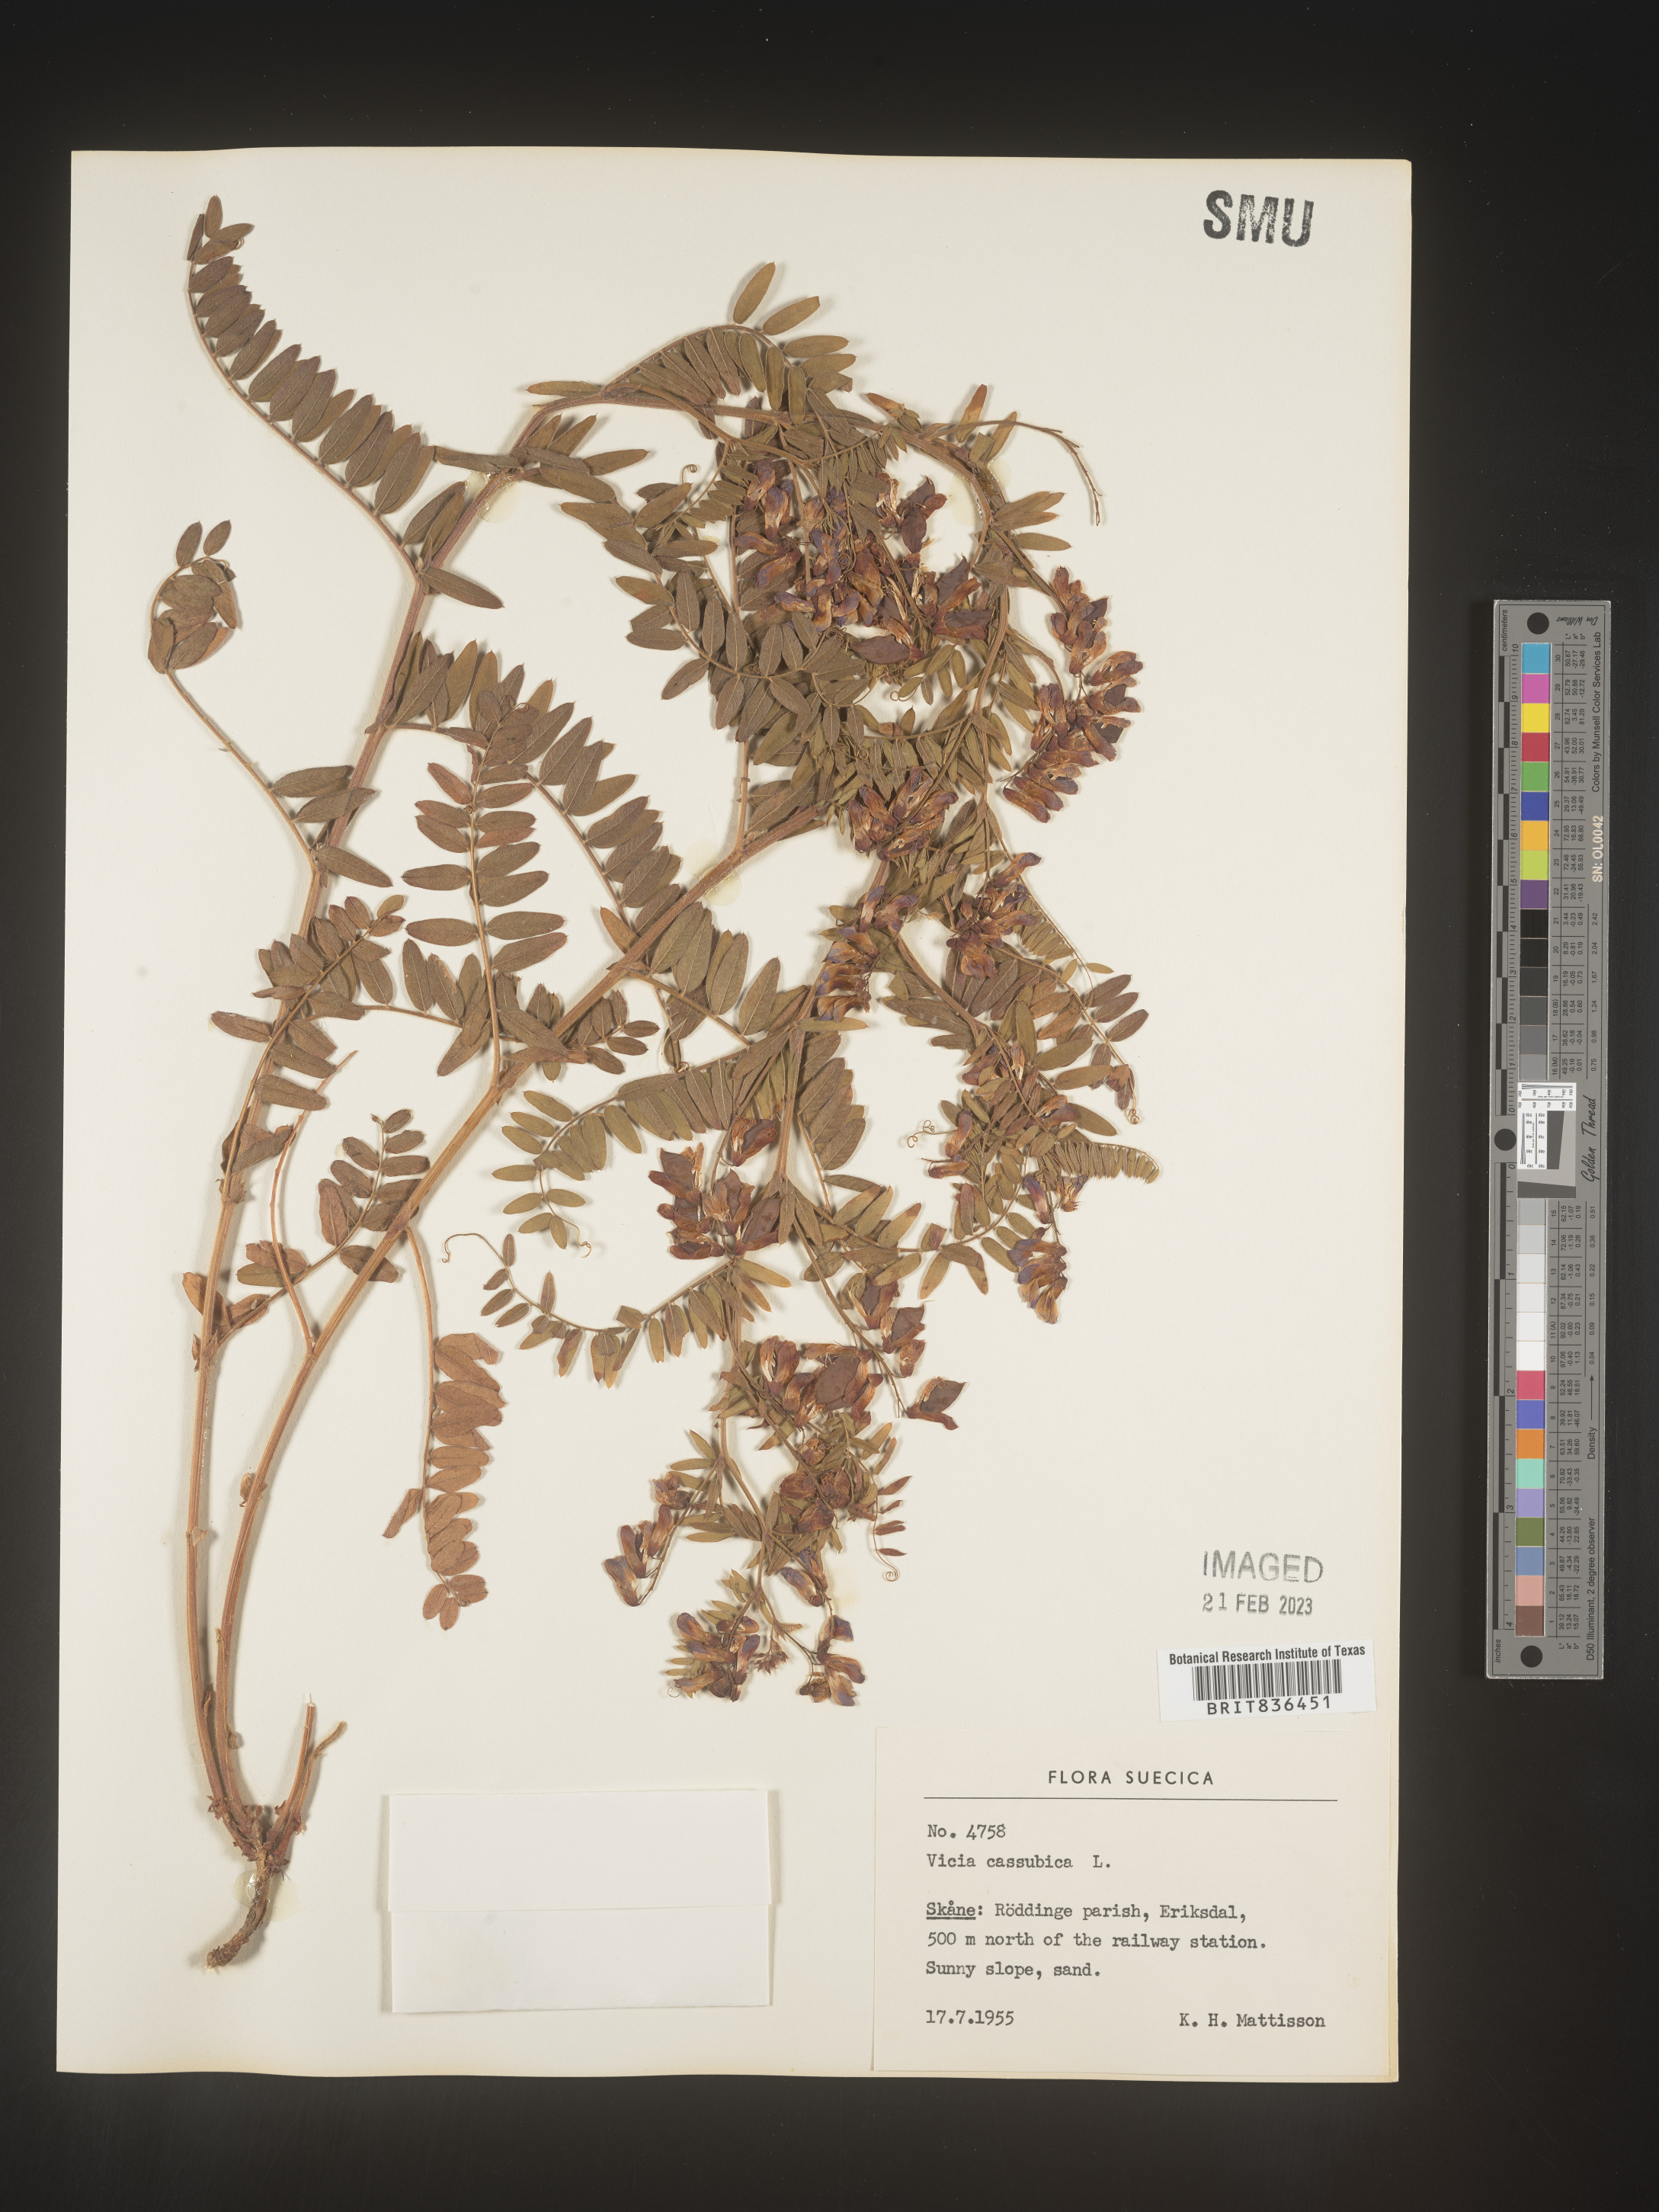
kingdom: Plantae
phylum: Tracheophyta
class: Magnoliopsida
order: Fabales
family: Fabaceae
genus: Vicia
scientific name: Vicia
